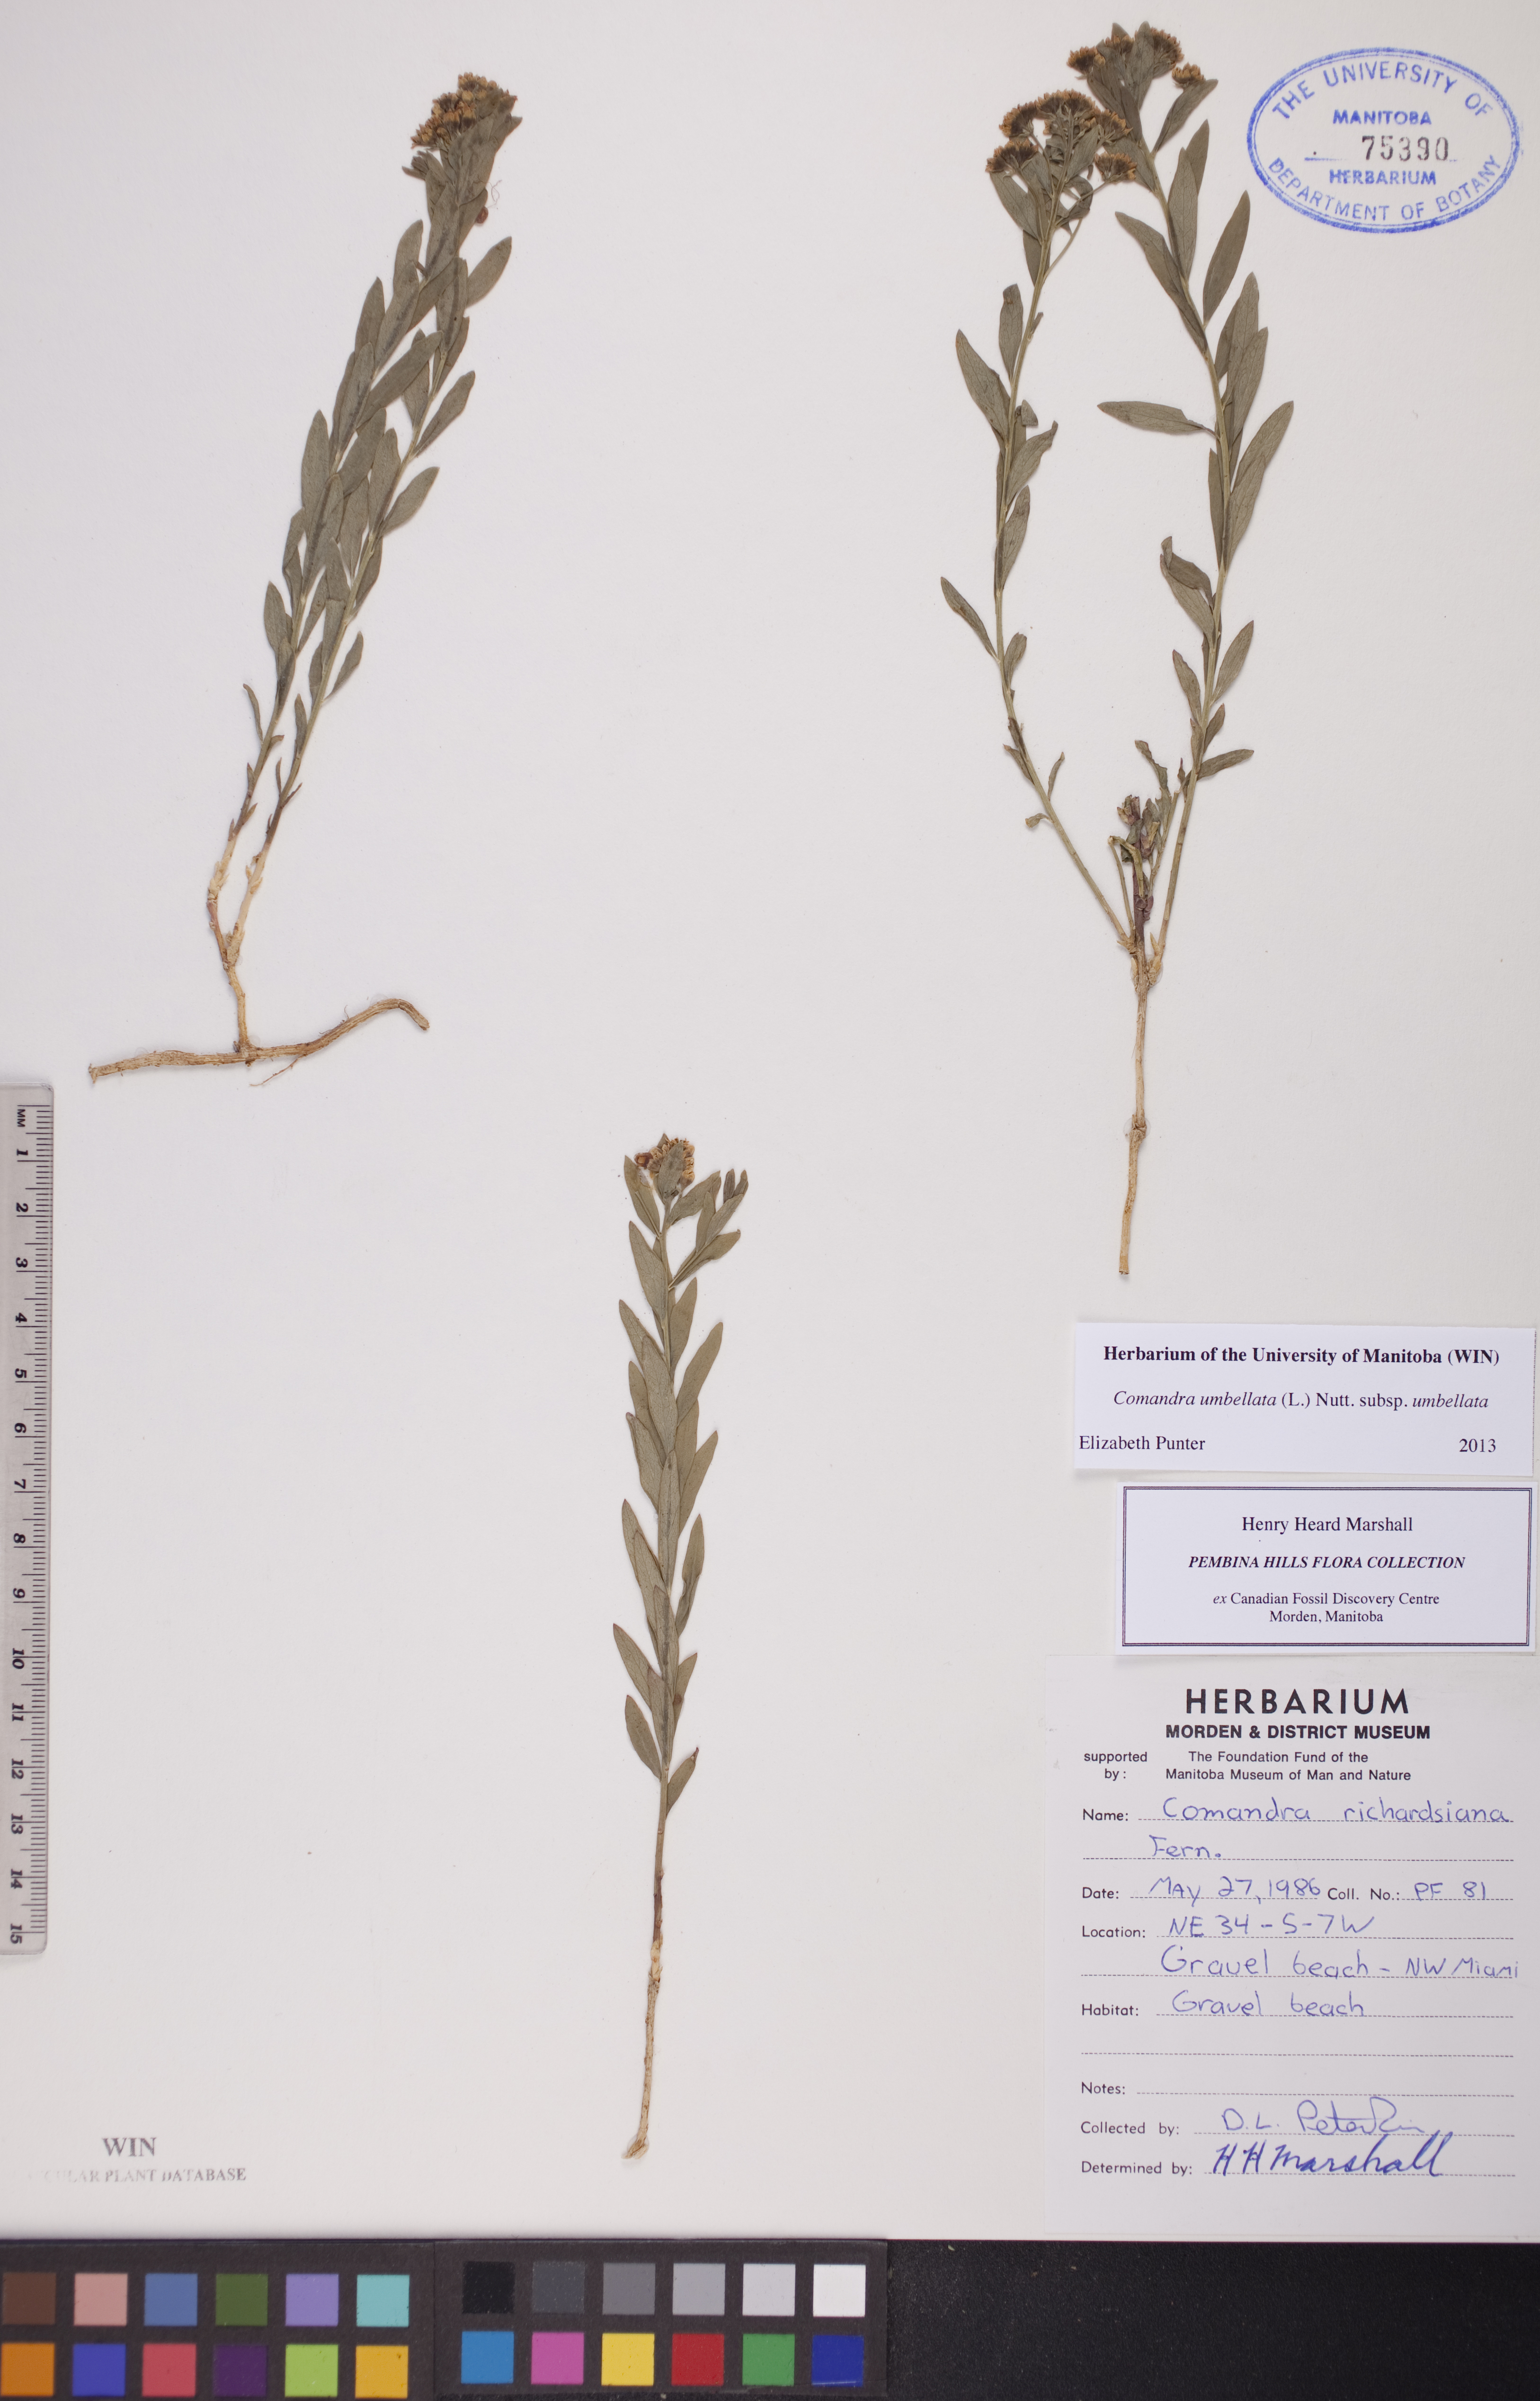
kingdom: Plantae
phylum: Tracheophyta
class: Magnoliopsida
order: Santalales
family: Comandraceae
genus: Comandra
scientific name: Comandra umbellata
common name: Bastard toadflax
